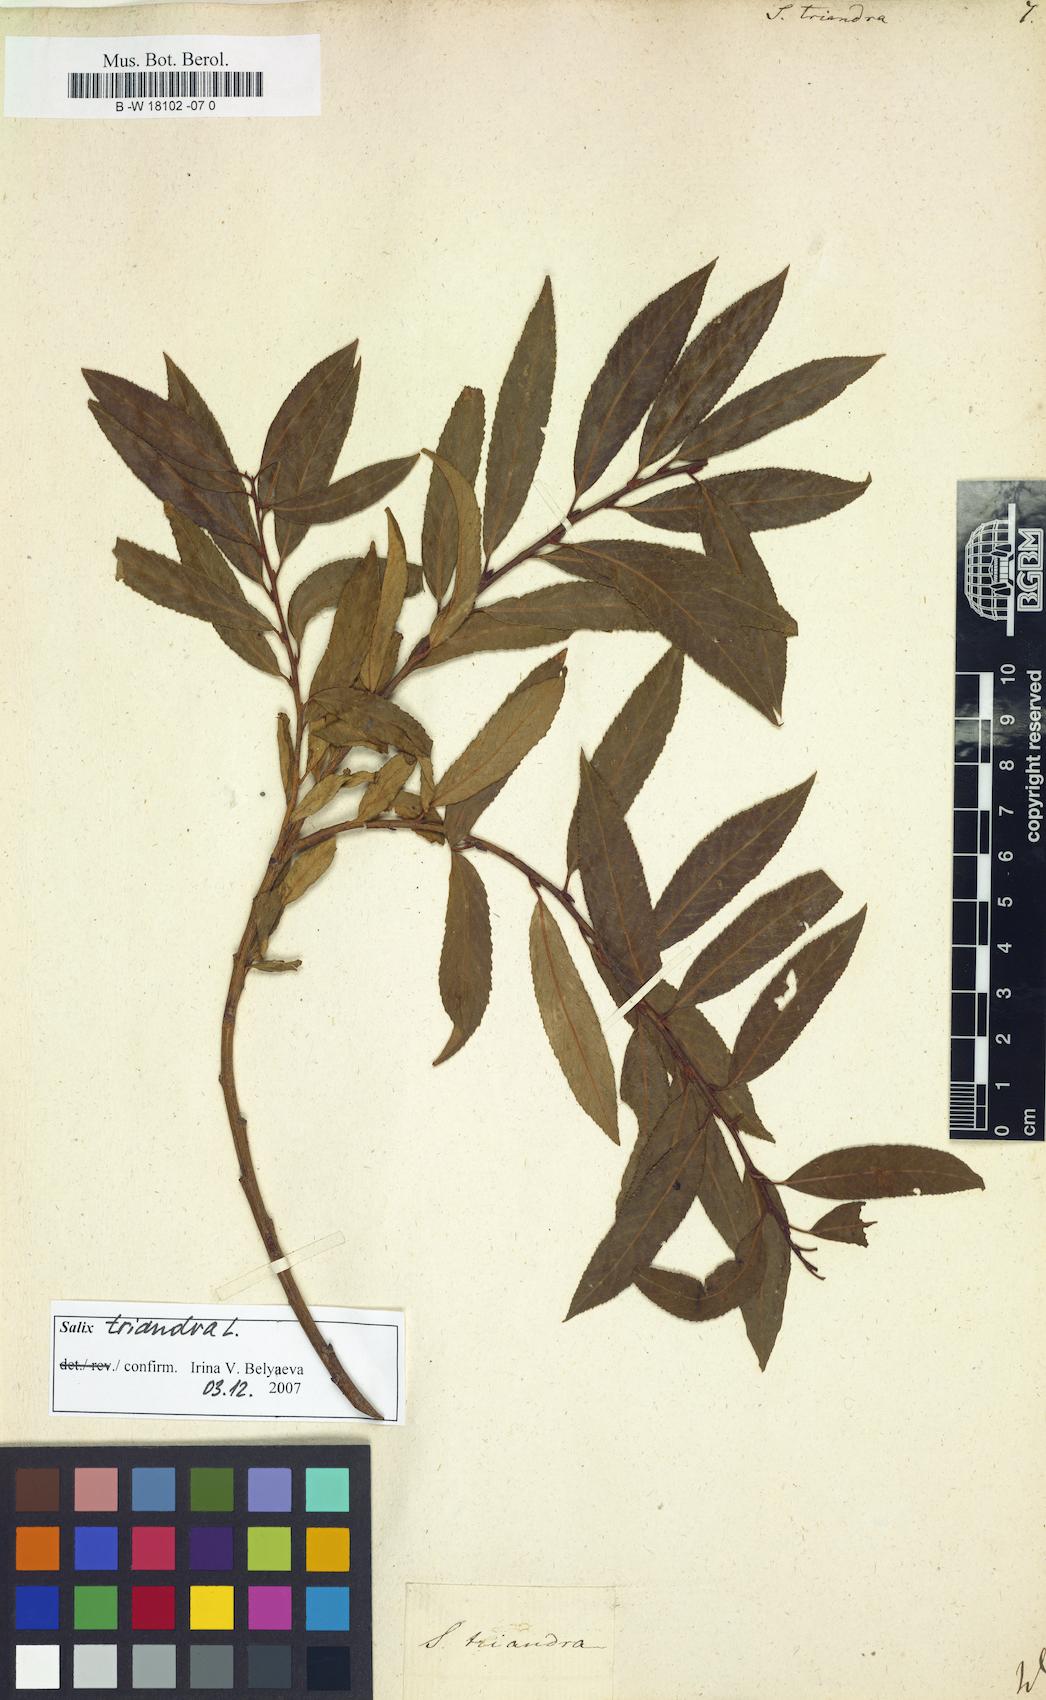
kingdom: Plantae
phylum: Tracheophyta
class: Magnoliopsida
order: Malpighiales
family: Salicaceae
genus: Salix
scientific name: Salix triandra
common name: Almond willow
